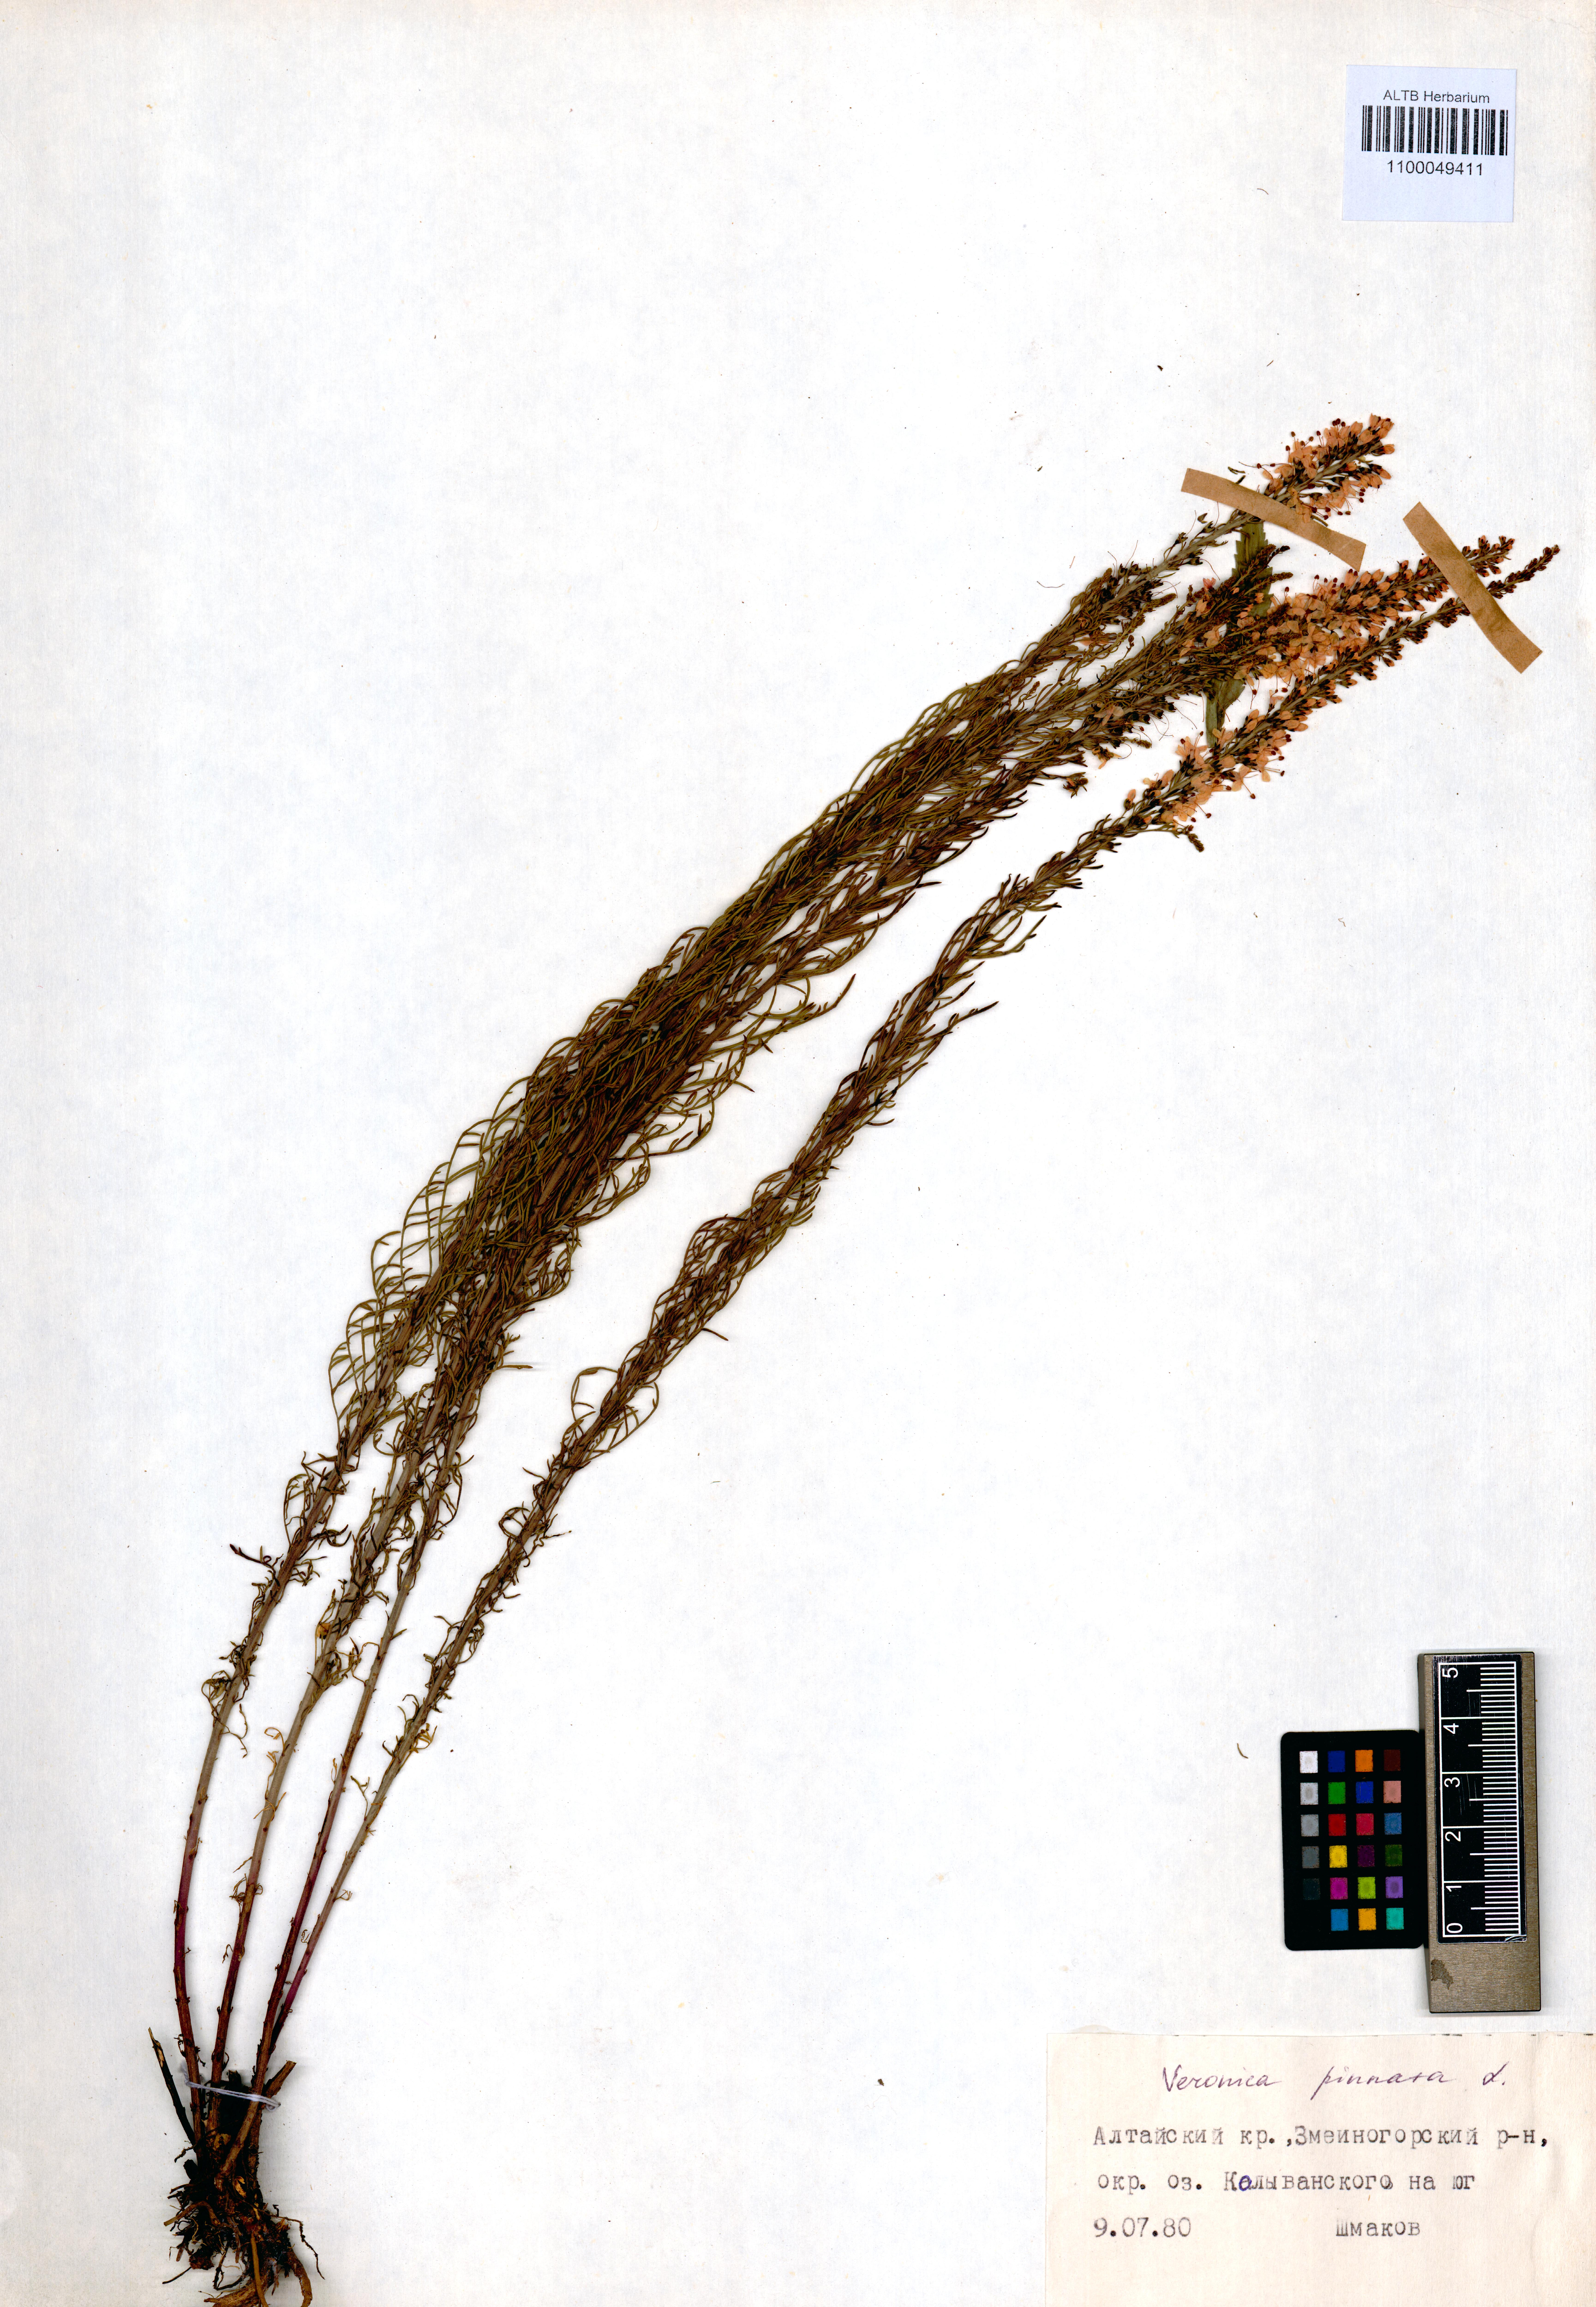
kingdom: Plantae
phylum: Tracheophyta
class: Magnoliopsida
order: Lamiales
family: Plantaginaceae
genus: Veronica
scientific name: Veronica pinnata
